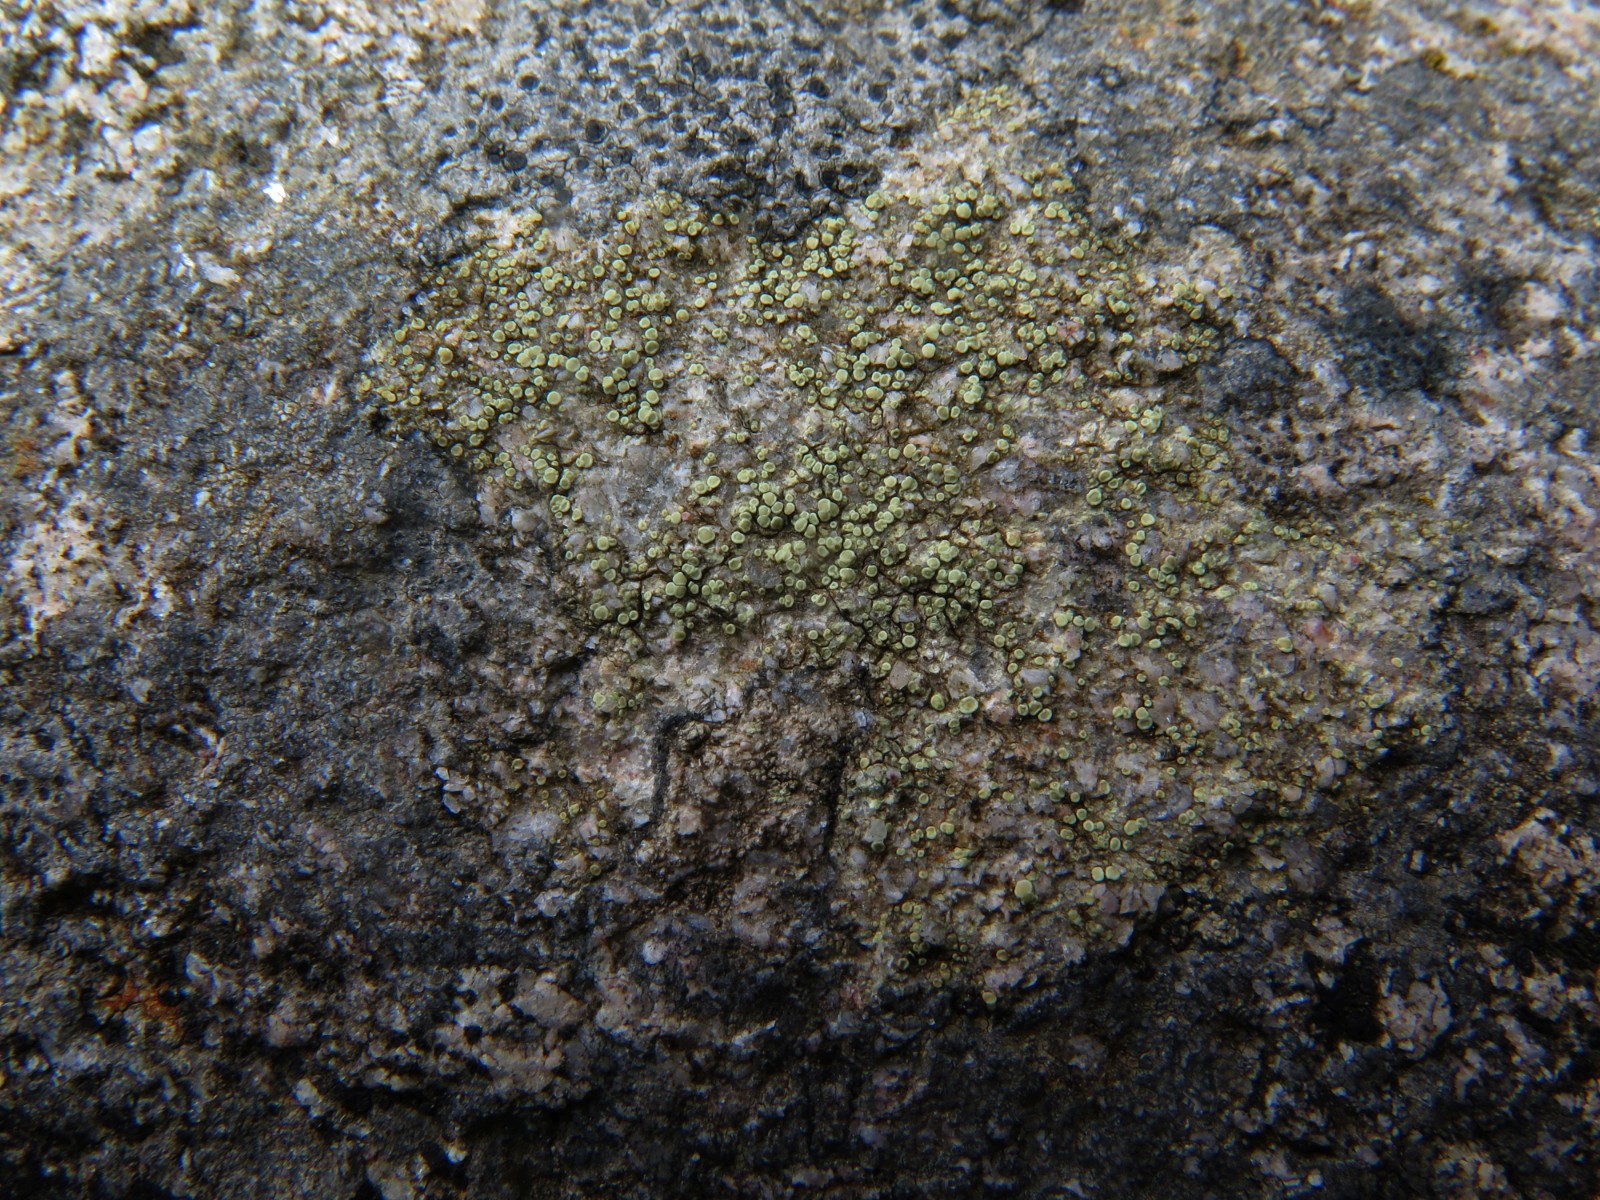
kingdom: Fungi
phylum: Ascomycota
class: Lecanoromycetes
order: Lecanorales
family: Lecanoraceae
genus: Lecanora
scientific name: Lecanora polytropa
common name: bleggrøn kantskivelav
